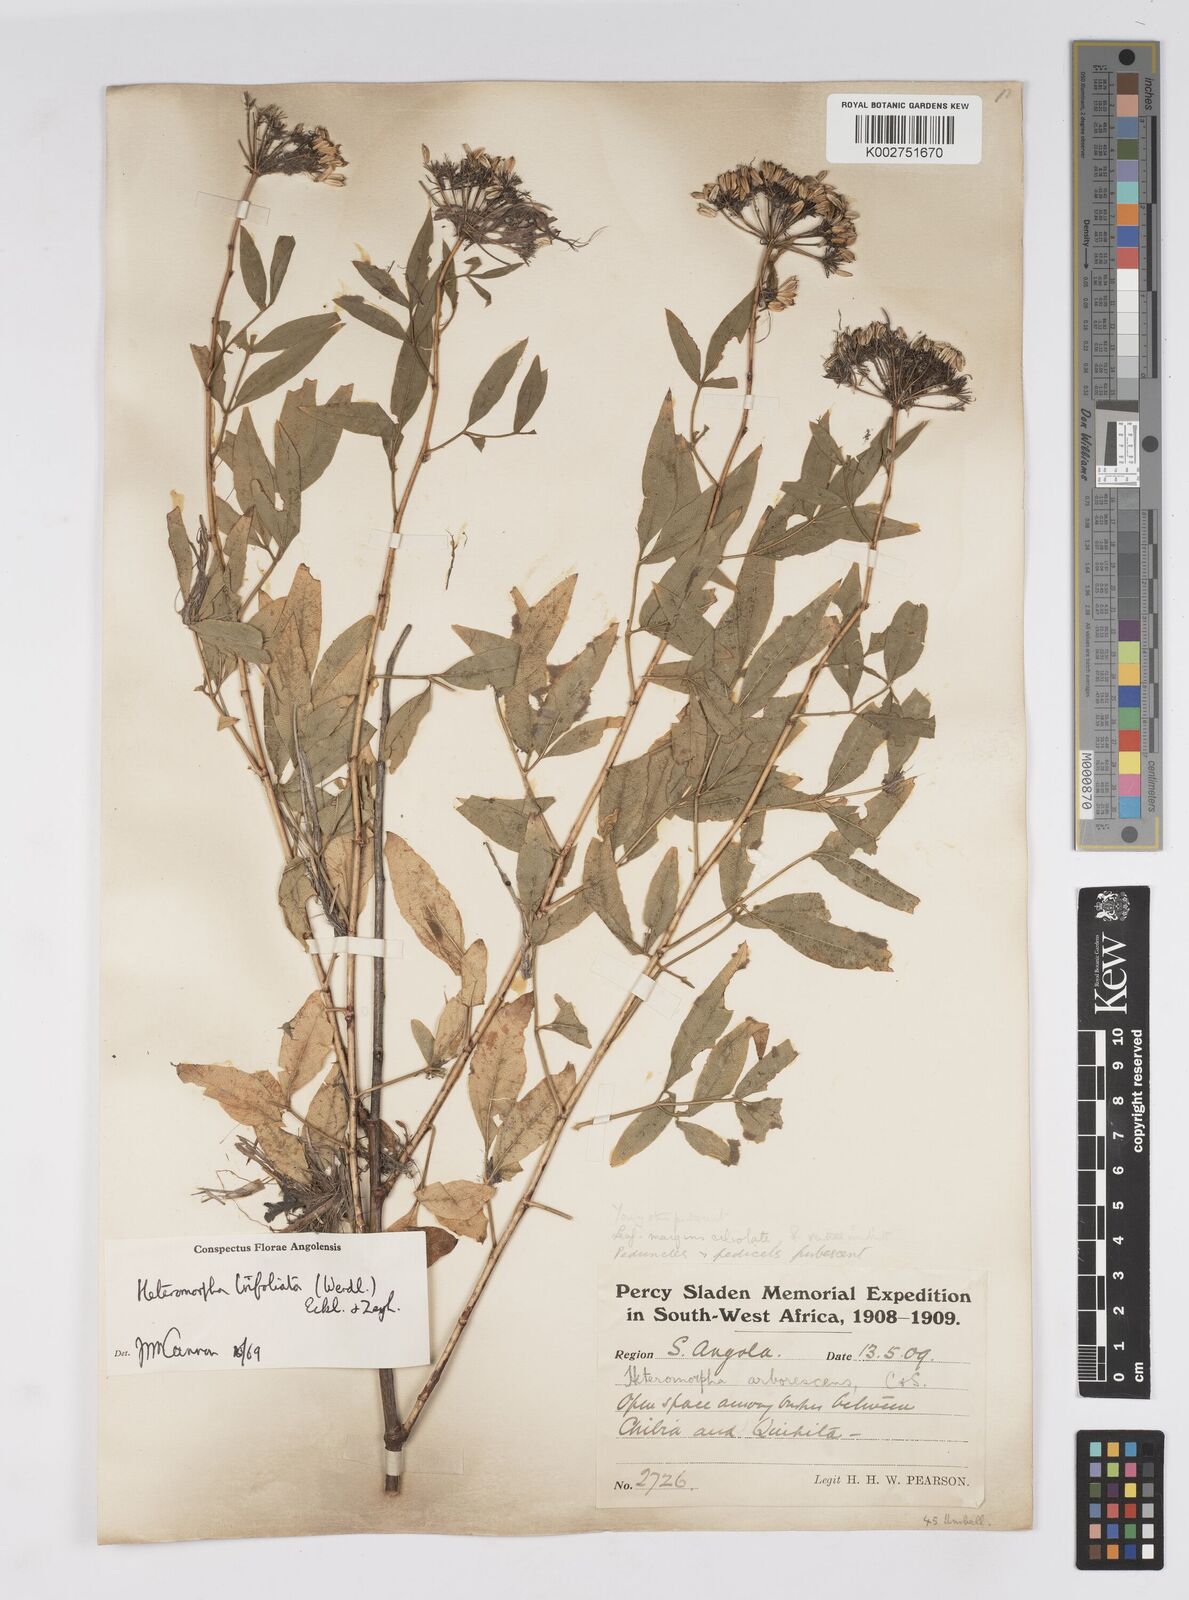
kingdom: Plantae
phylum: Tracheophyta
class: Magnoliopsida
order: Apiales
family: Apiaceae
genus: Heteromorpha
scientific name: Heteromorpha arborescens
